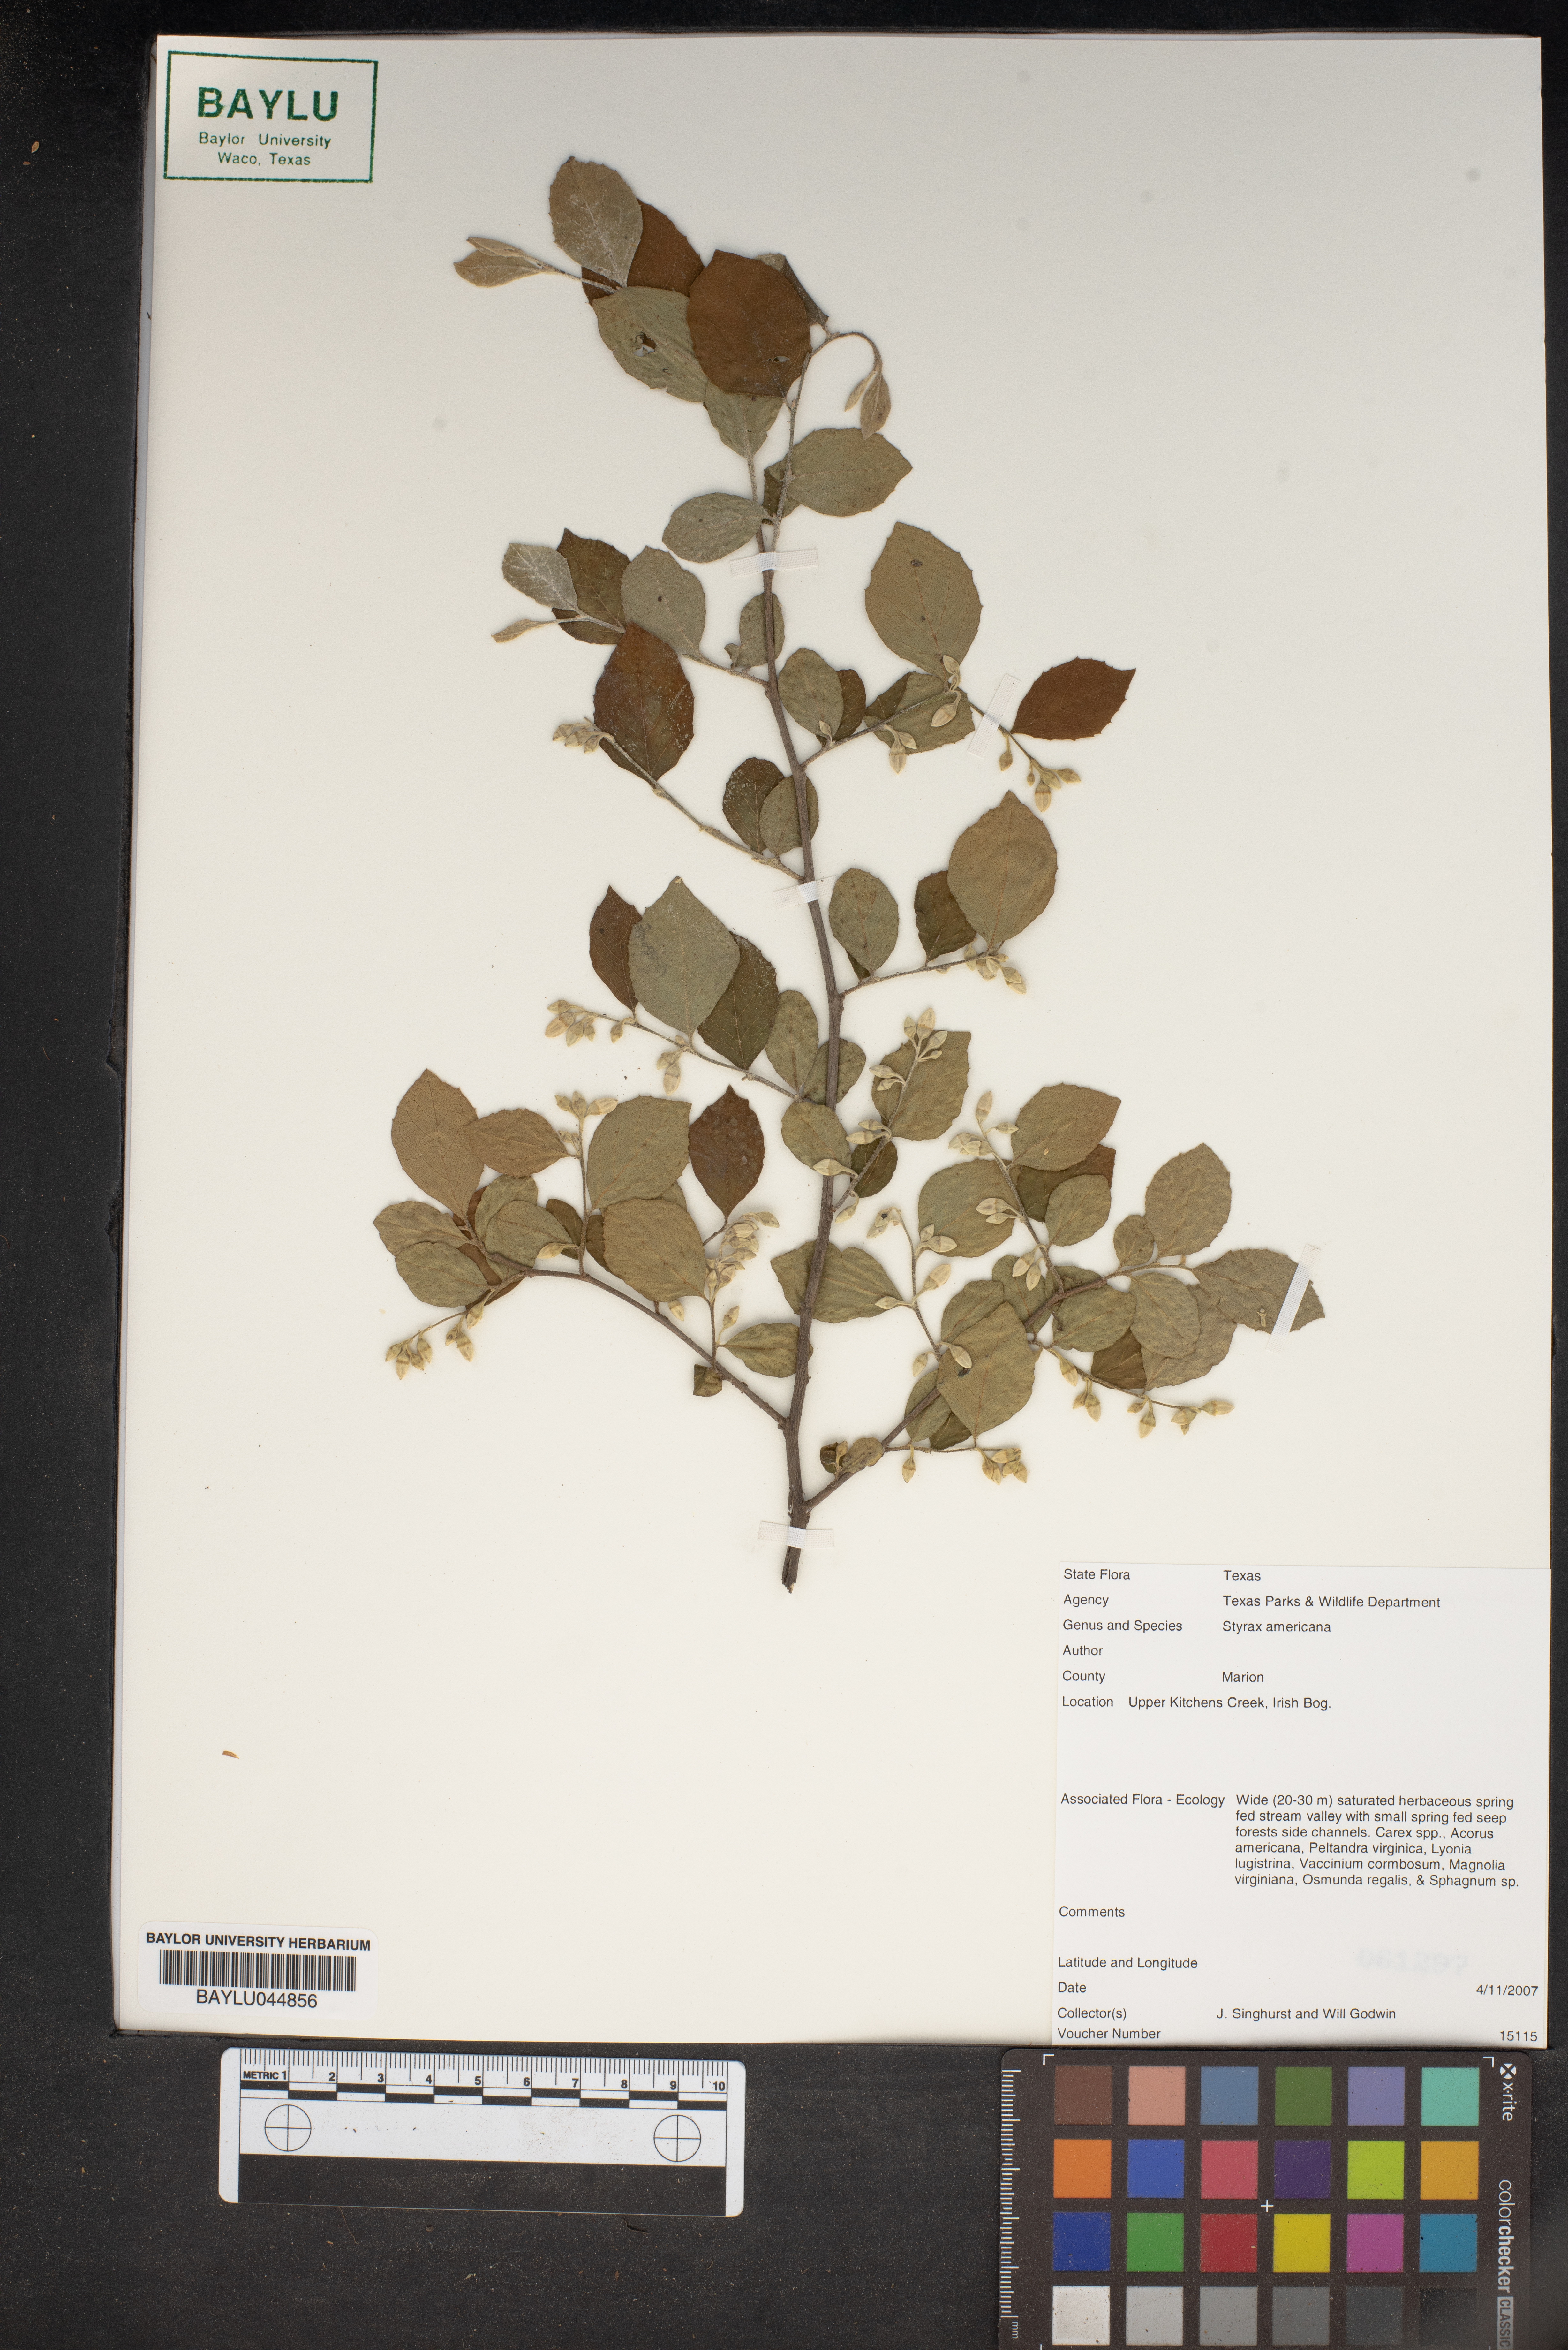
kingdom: Plantae
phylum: Tracheophyta
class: Magnoliopsida
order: Ericales
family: Styracaceae
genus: Styrax
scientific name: Styrax americanus
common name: American snowbell
